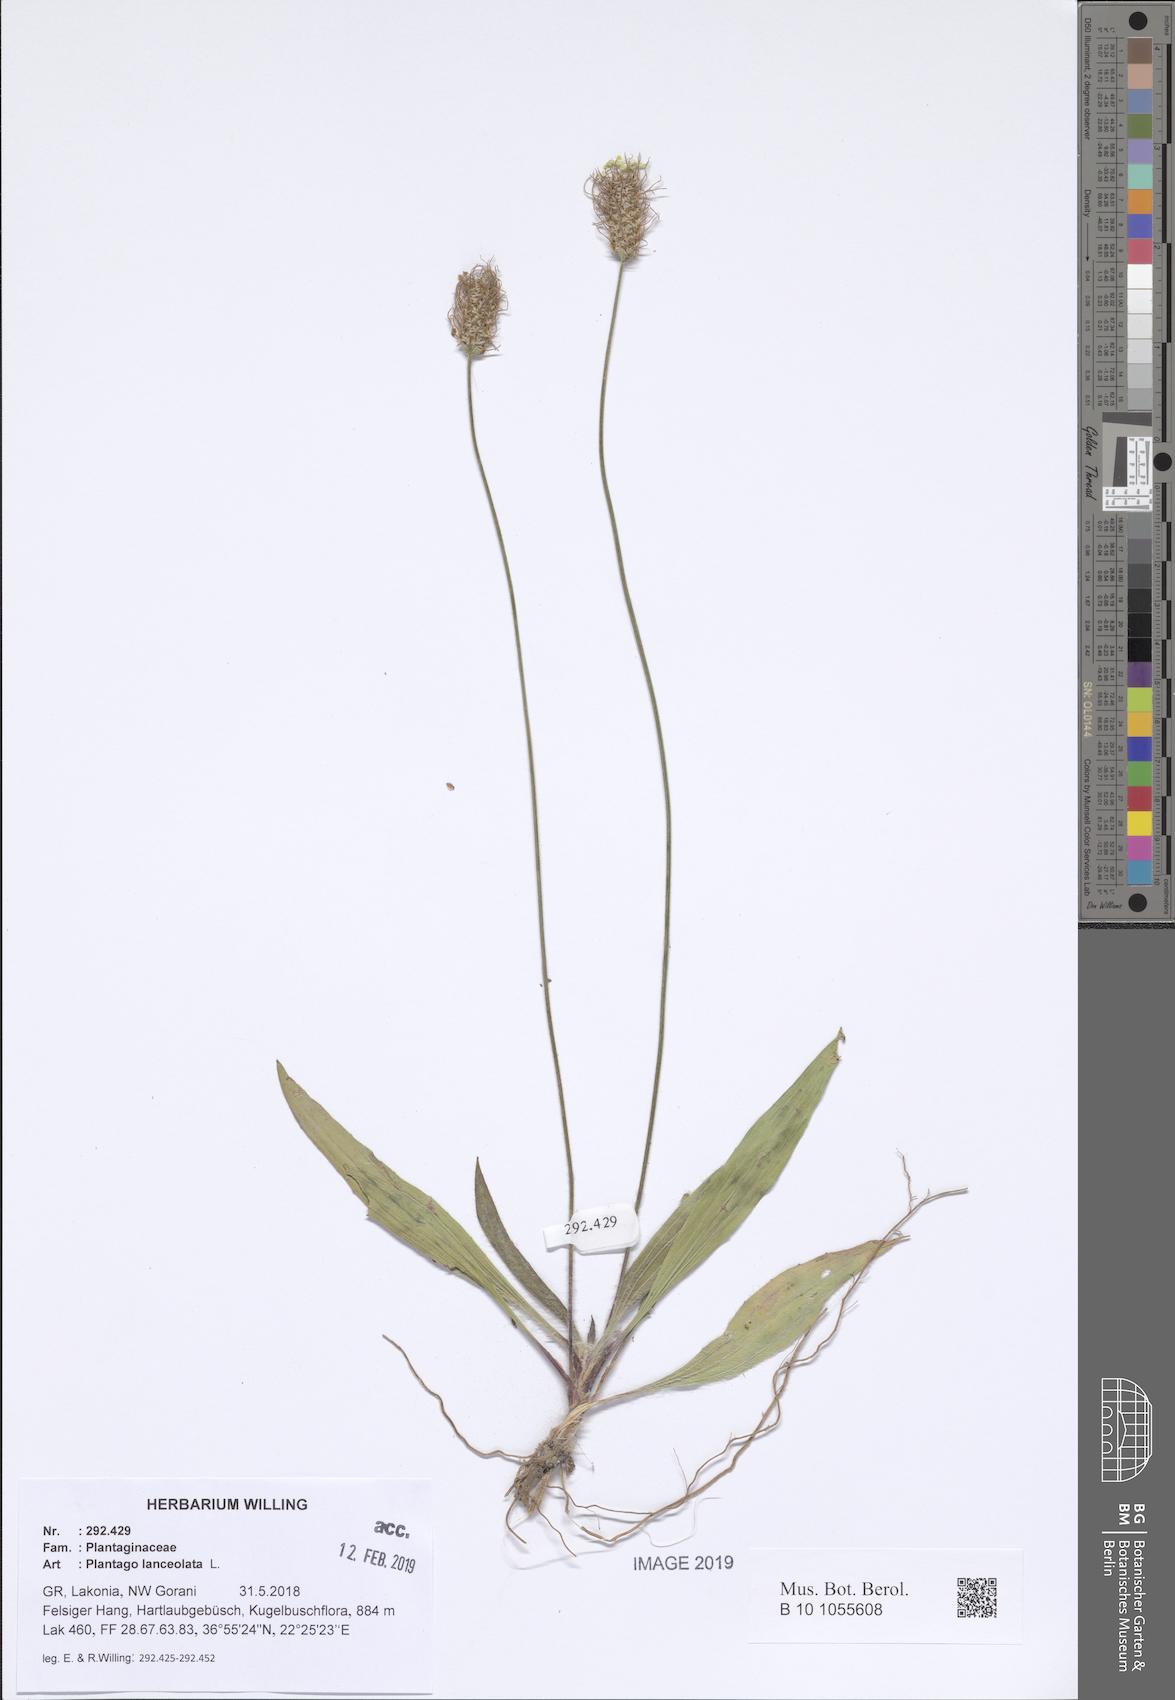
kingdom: Plantae
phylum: Tracheophyta
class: Magnoliopsida
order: Lamiales
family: Plantaginaceae
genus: Plantago
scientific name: Plantago lanceolata
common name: Ribwort plantain
